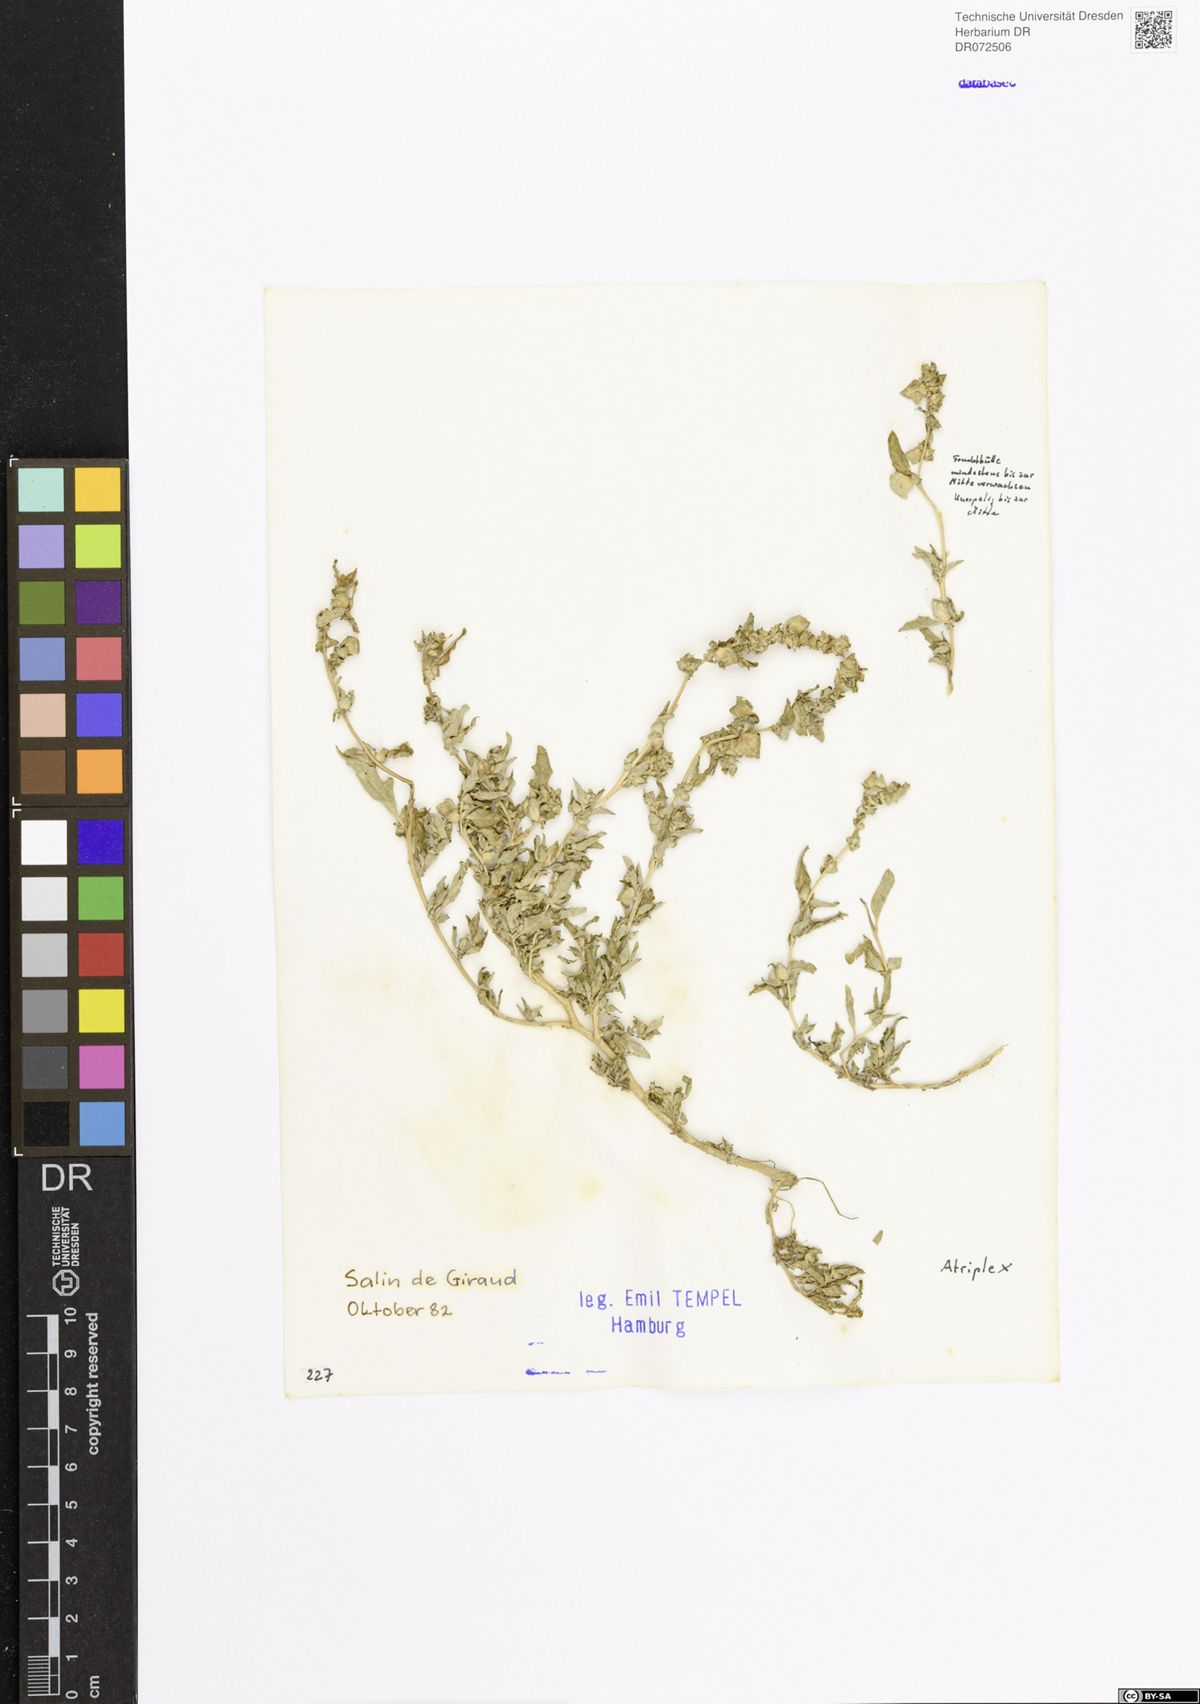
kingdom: Plantae
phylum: Tracheophyta
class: Magnoliopsida
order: Caryophyllales
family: Amaranthaceae
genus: Atriplex
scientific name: Atriplex
